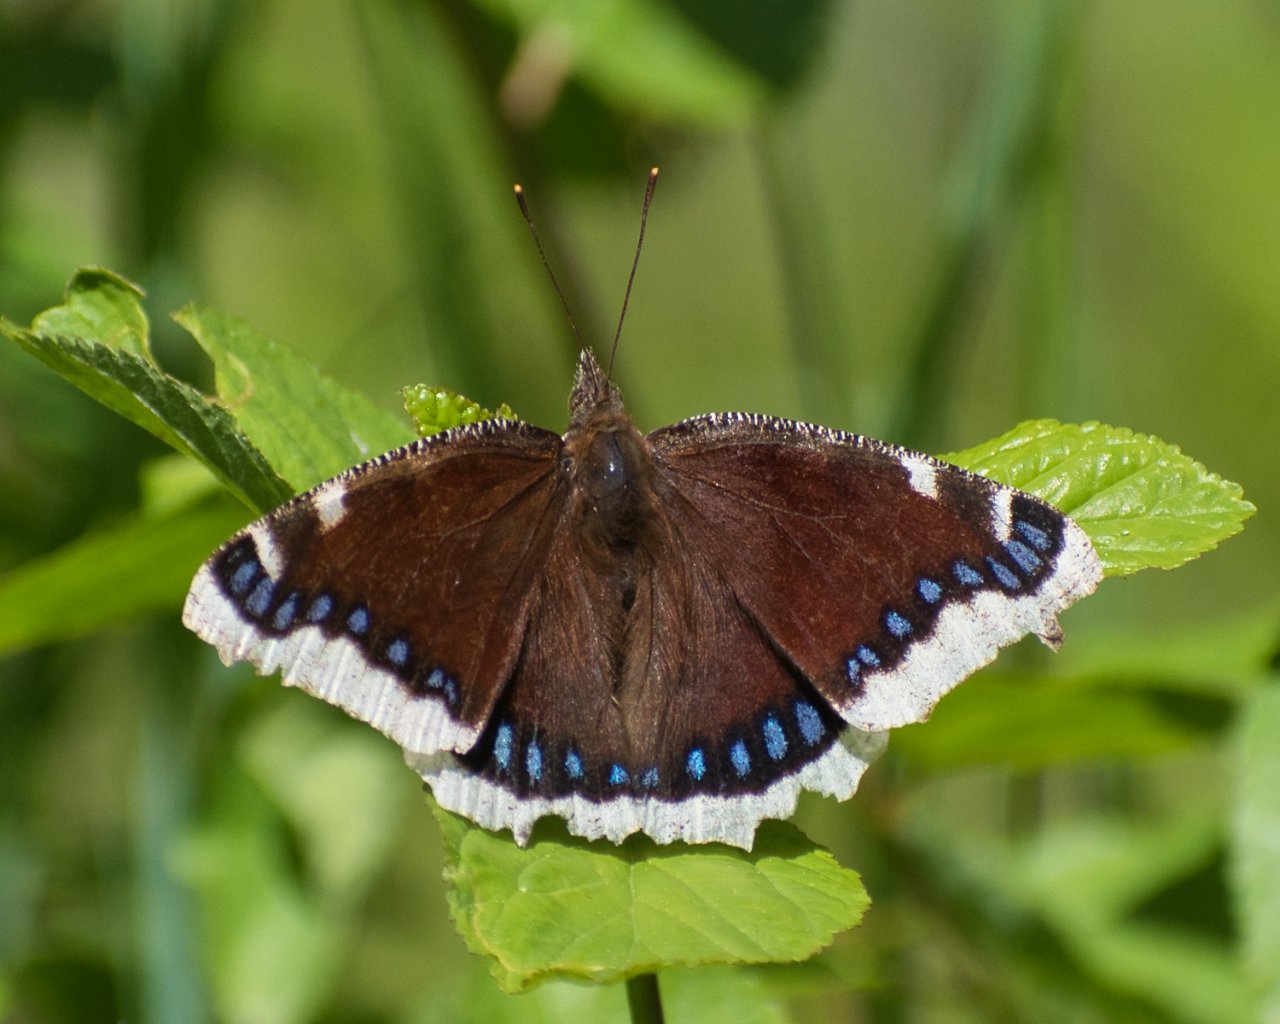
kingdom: Animalia
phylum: Arthropoda
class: Insecta
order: Lepidoptera
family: Nymphalidae
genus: Nymphalis
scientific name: Nymphalis antiopa
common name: Mourning Cloak
